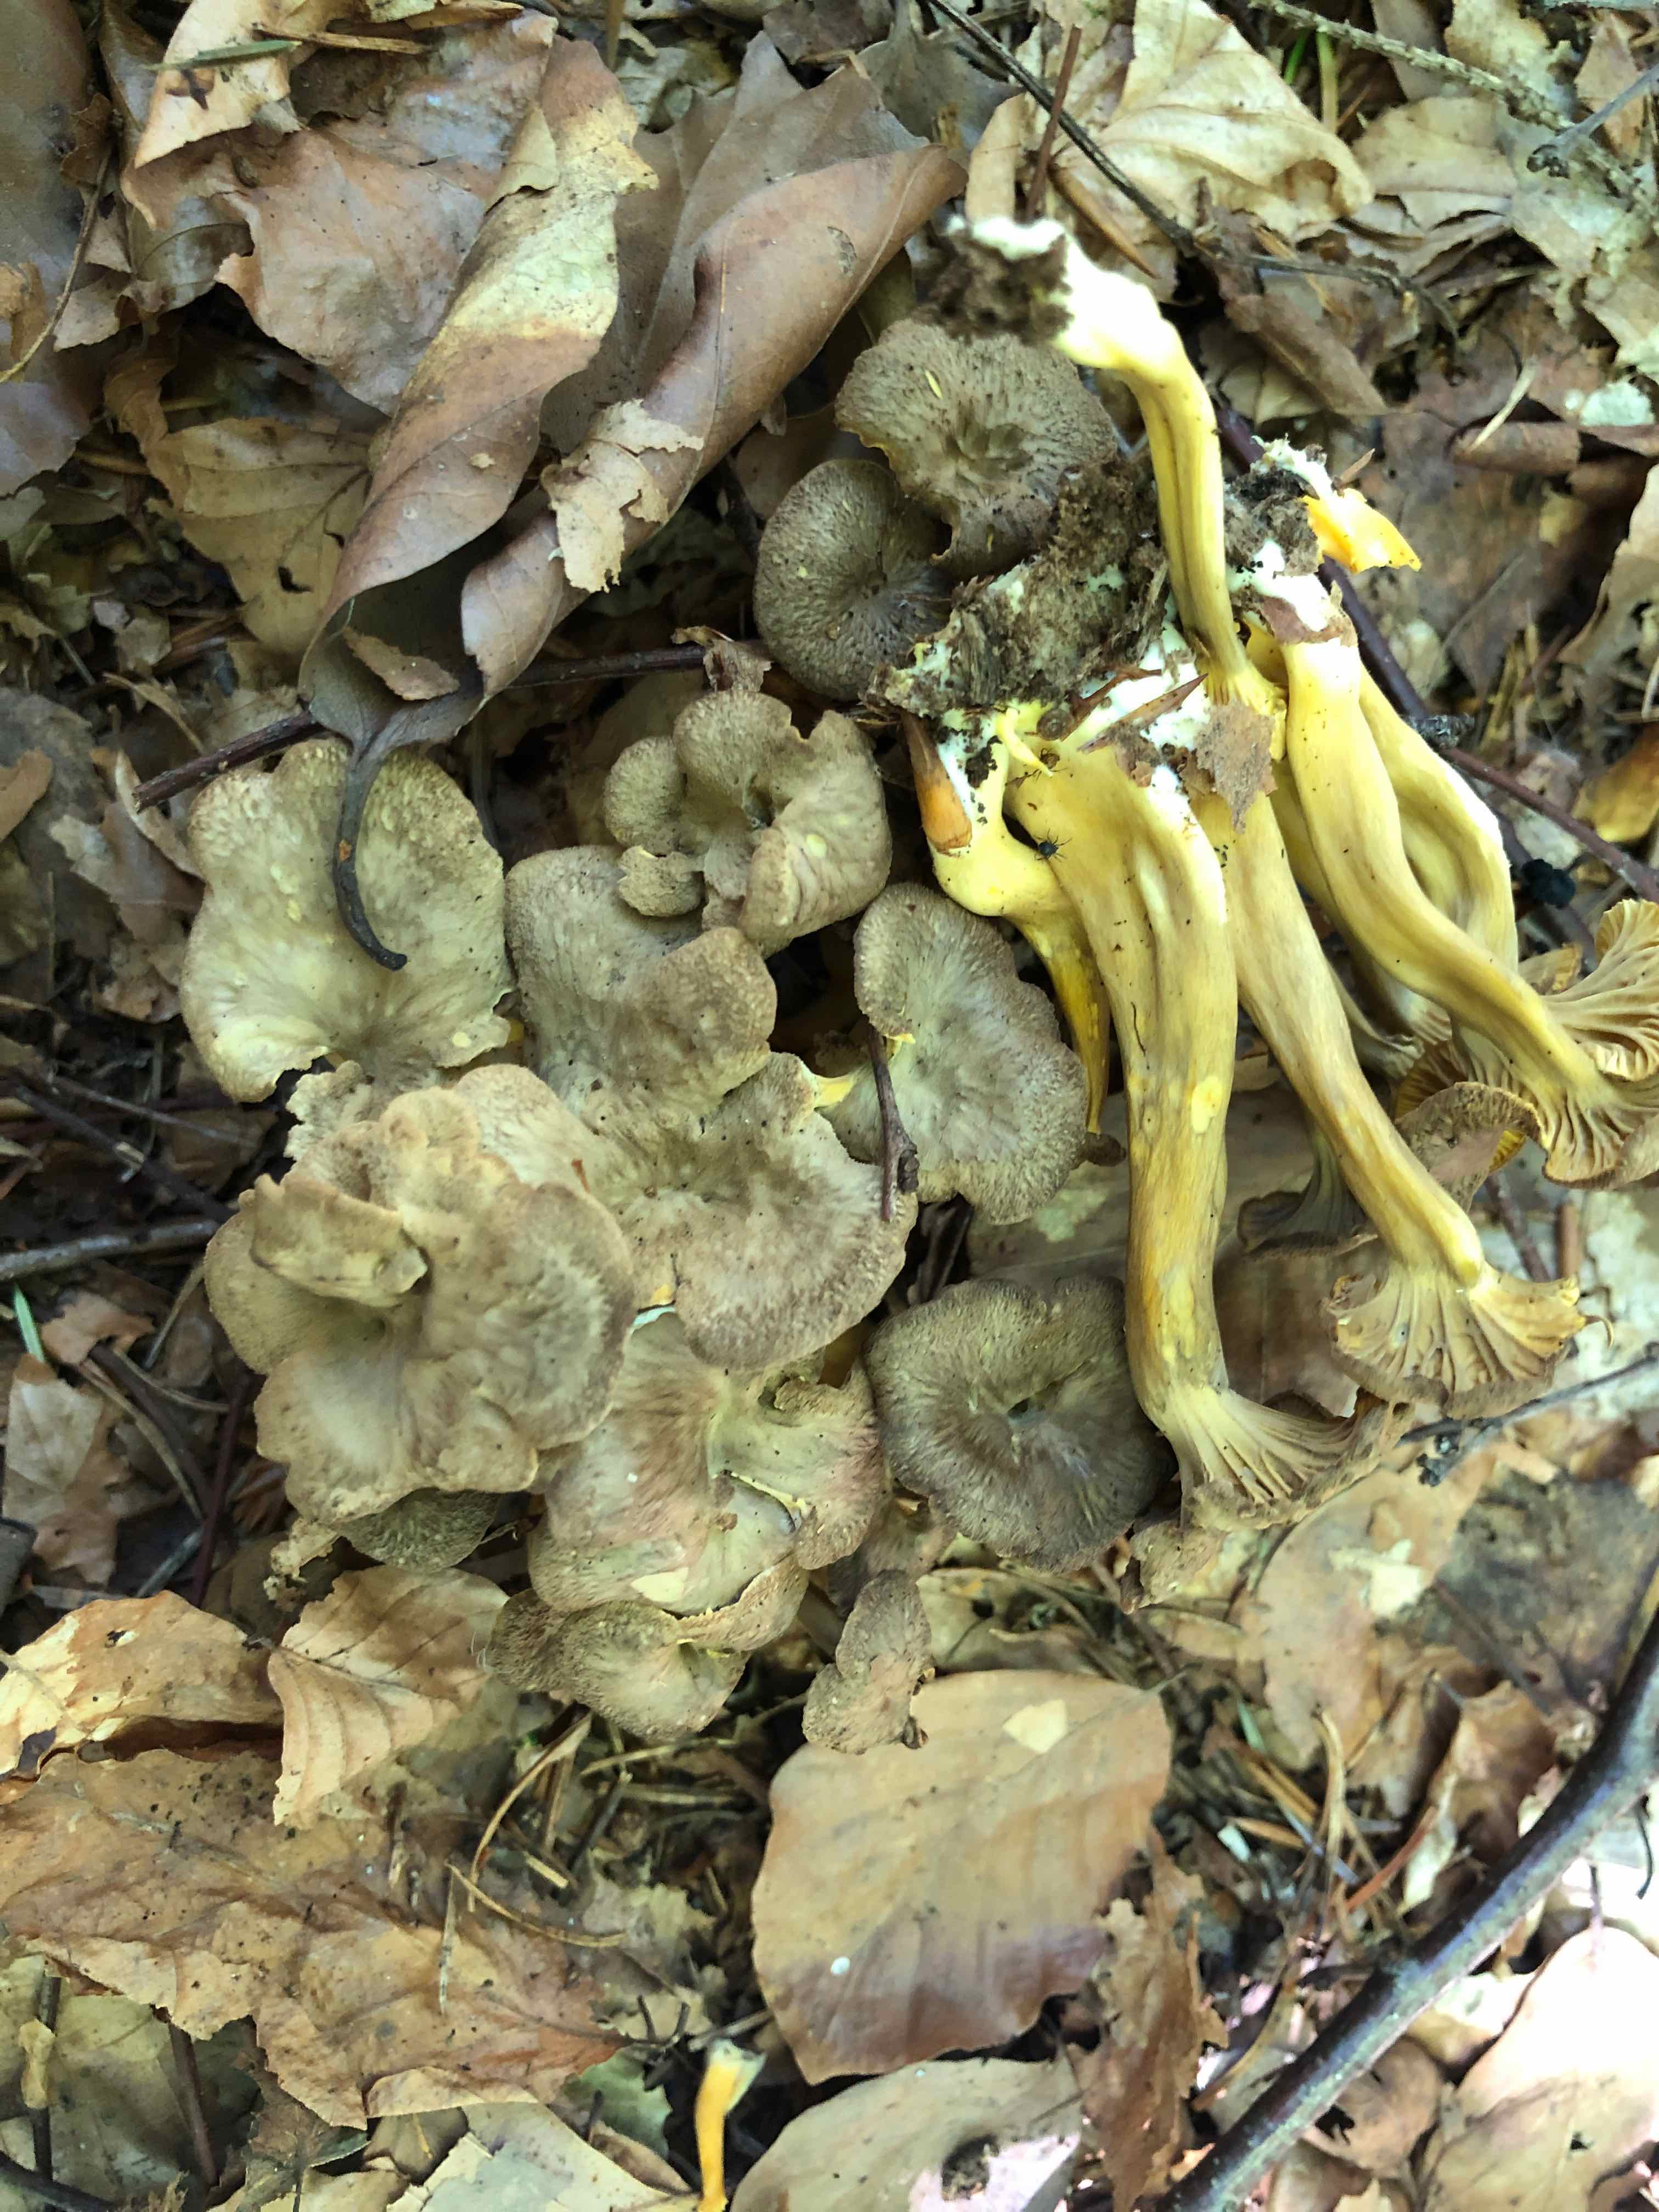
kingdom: Fungi
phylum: Basidiomycota
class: Agaricomycetes
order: Cantharellales
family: Hydnaceae
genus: Craterellus
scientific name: Craterellus tubaeformis
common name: tragt-kantarel
